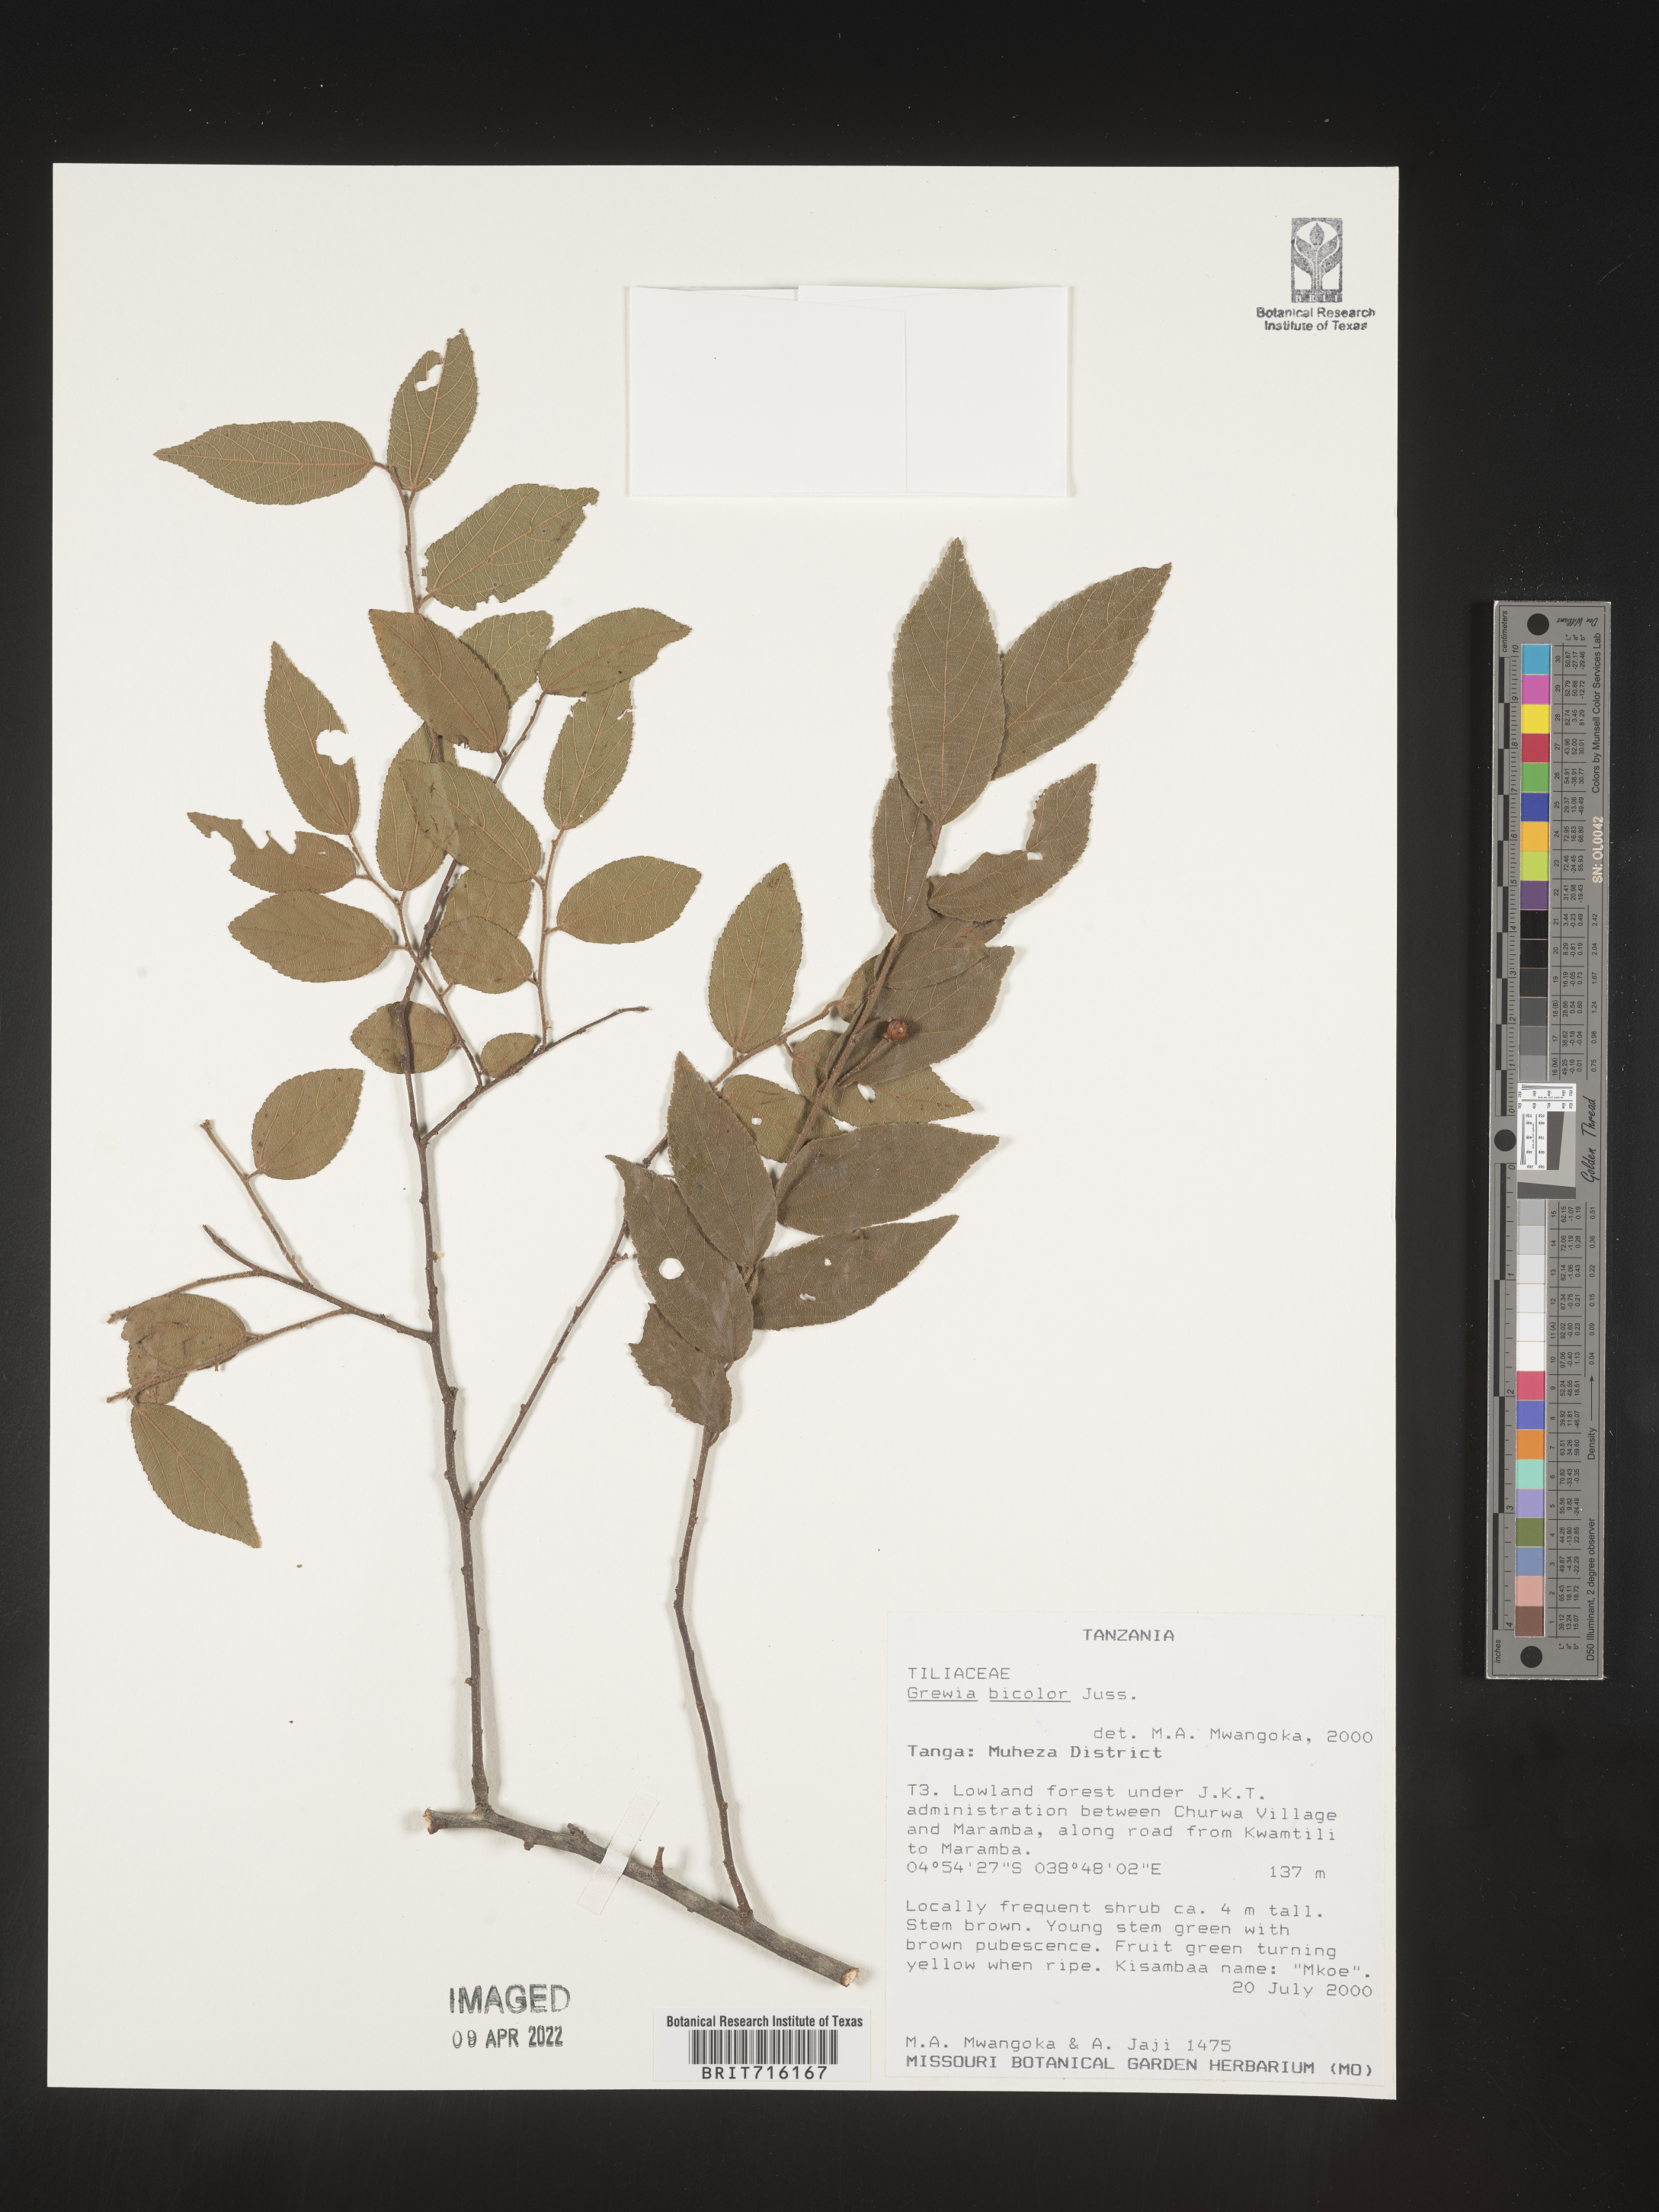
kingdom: Plantae
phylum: Tracheophyta
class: Magnoliopsida
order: Malvales
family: Malvaceae
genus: Grewia
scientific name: Grewia
